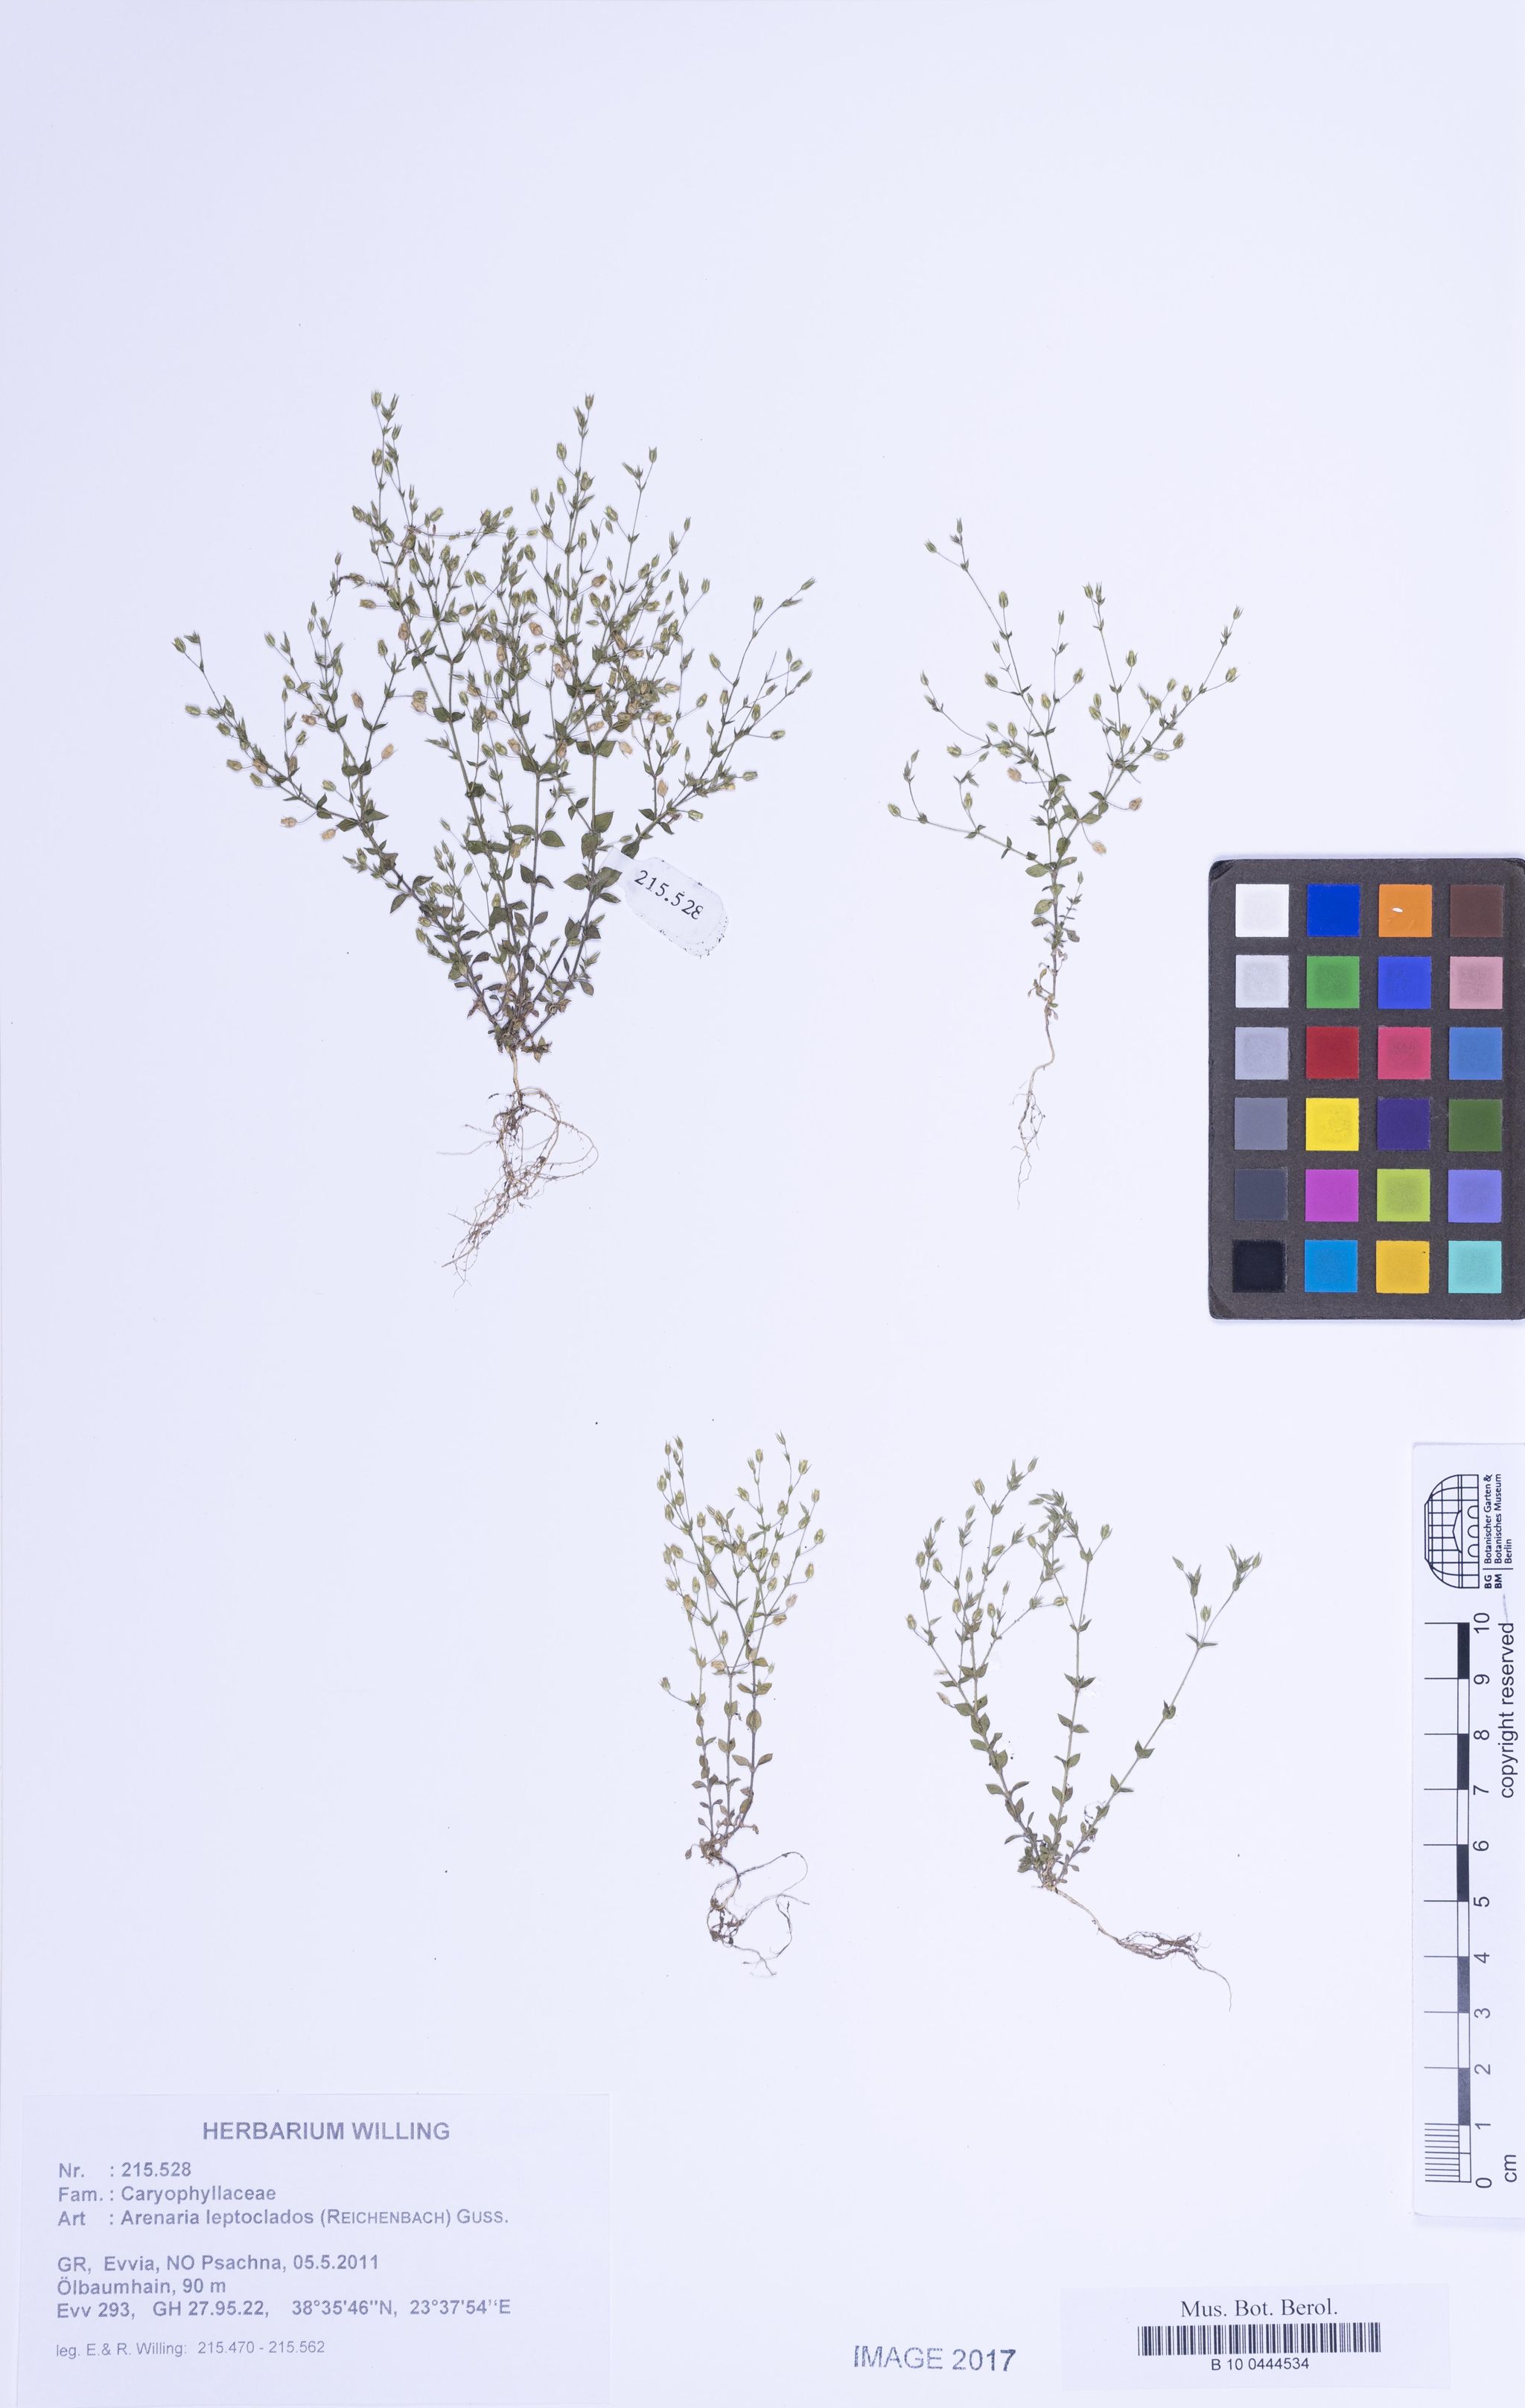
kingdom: Plantae
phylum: Tracheophyta
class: Magnoliopsida
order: Caryophyllales
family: Caryophyllaceae
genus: Arenaria
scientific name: Arenaria leptoclados
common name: Thyme-leaved sandwort
